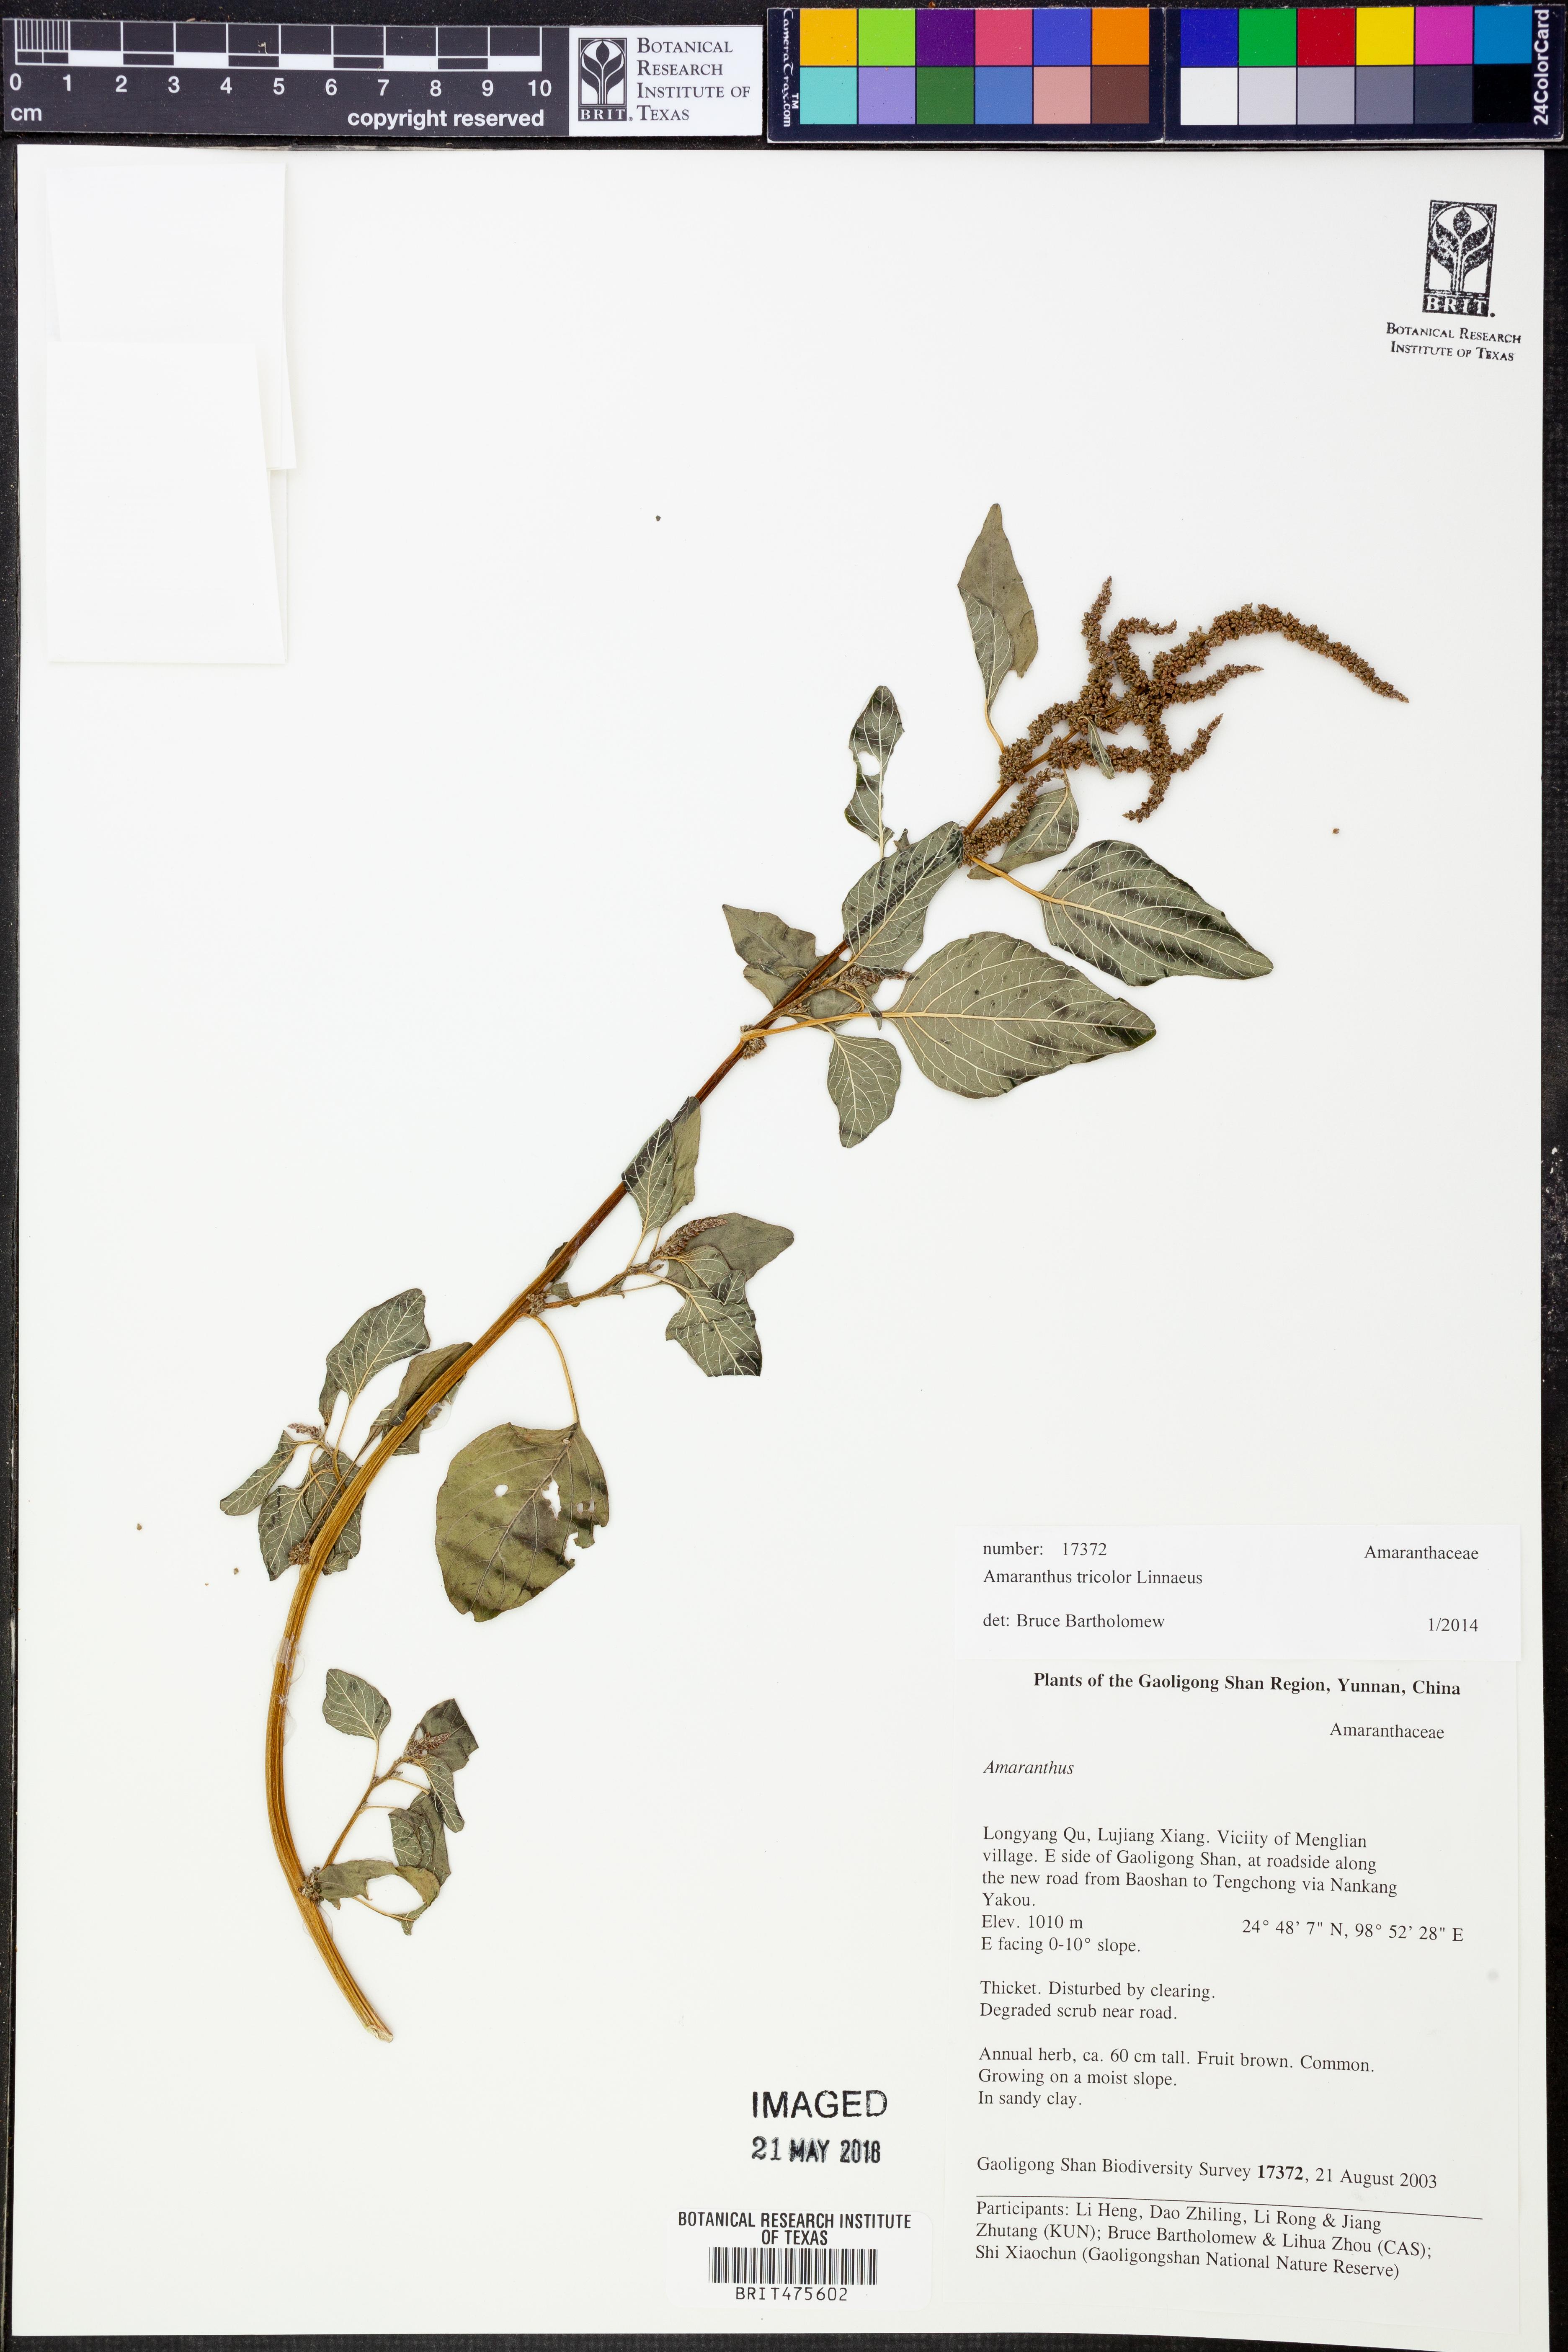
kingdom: Plantae
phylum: Tracheophyta
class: Magnoliopsida
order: Caryophyllales
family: Amaranthaceae
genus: Amaranthus
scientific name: Amaranthus tricolor
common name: Joseph's-coat
